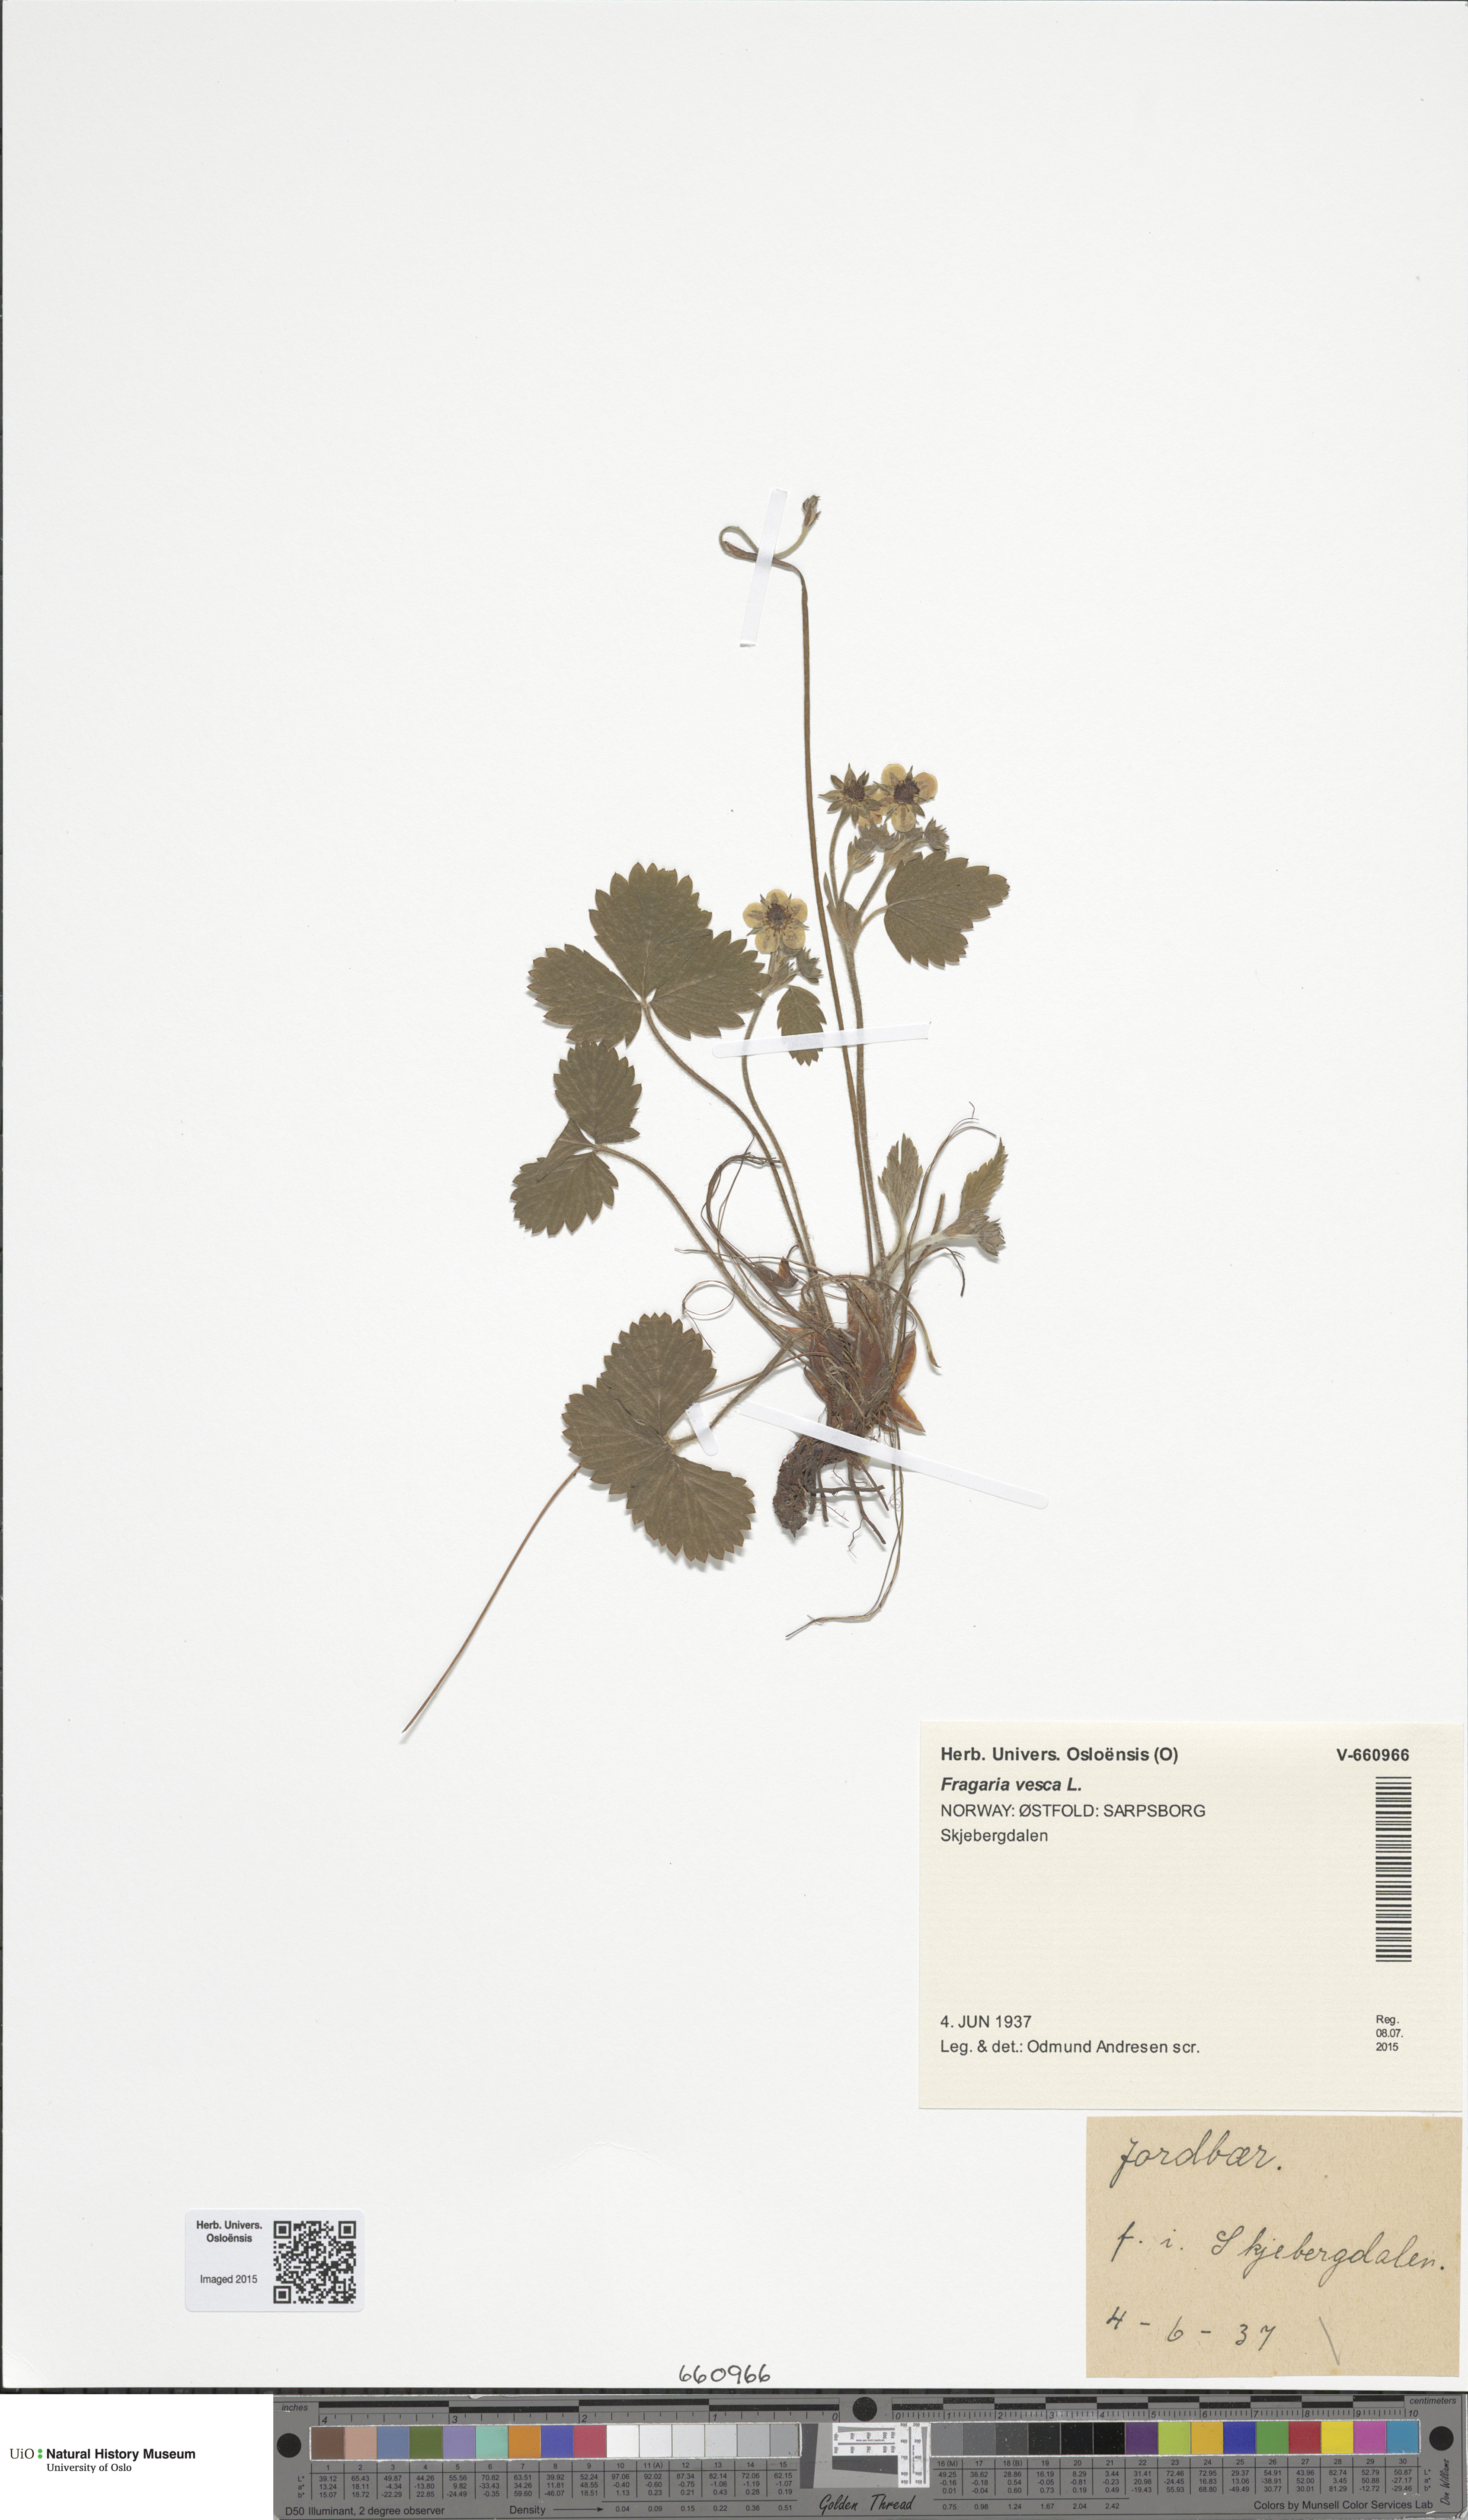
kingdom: Plantae
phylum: Tracheophyta
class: Magnoliopsida
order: Rosales
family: Rosaceae
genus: Fragaria
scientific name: Fragaria vesca
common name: Wild strawberry
